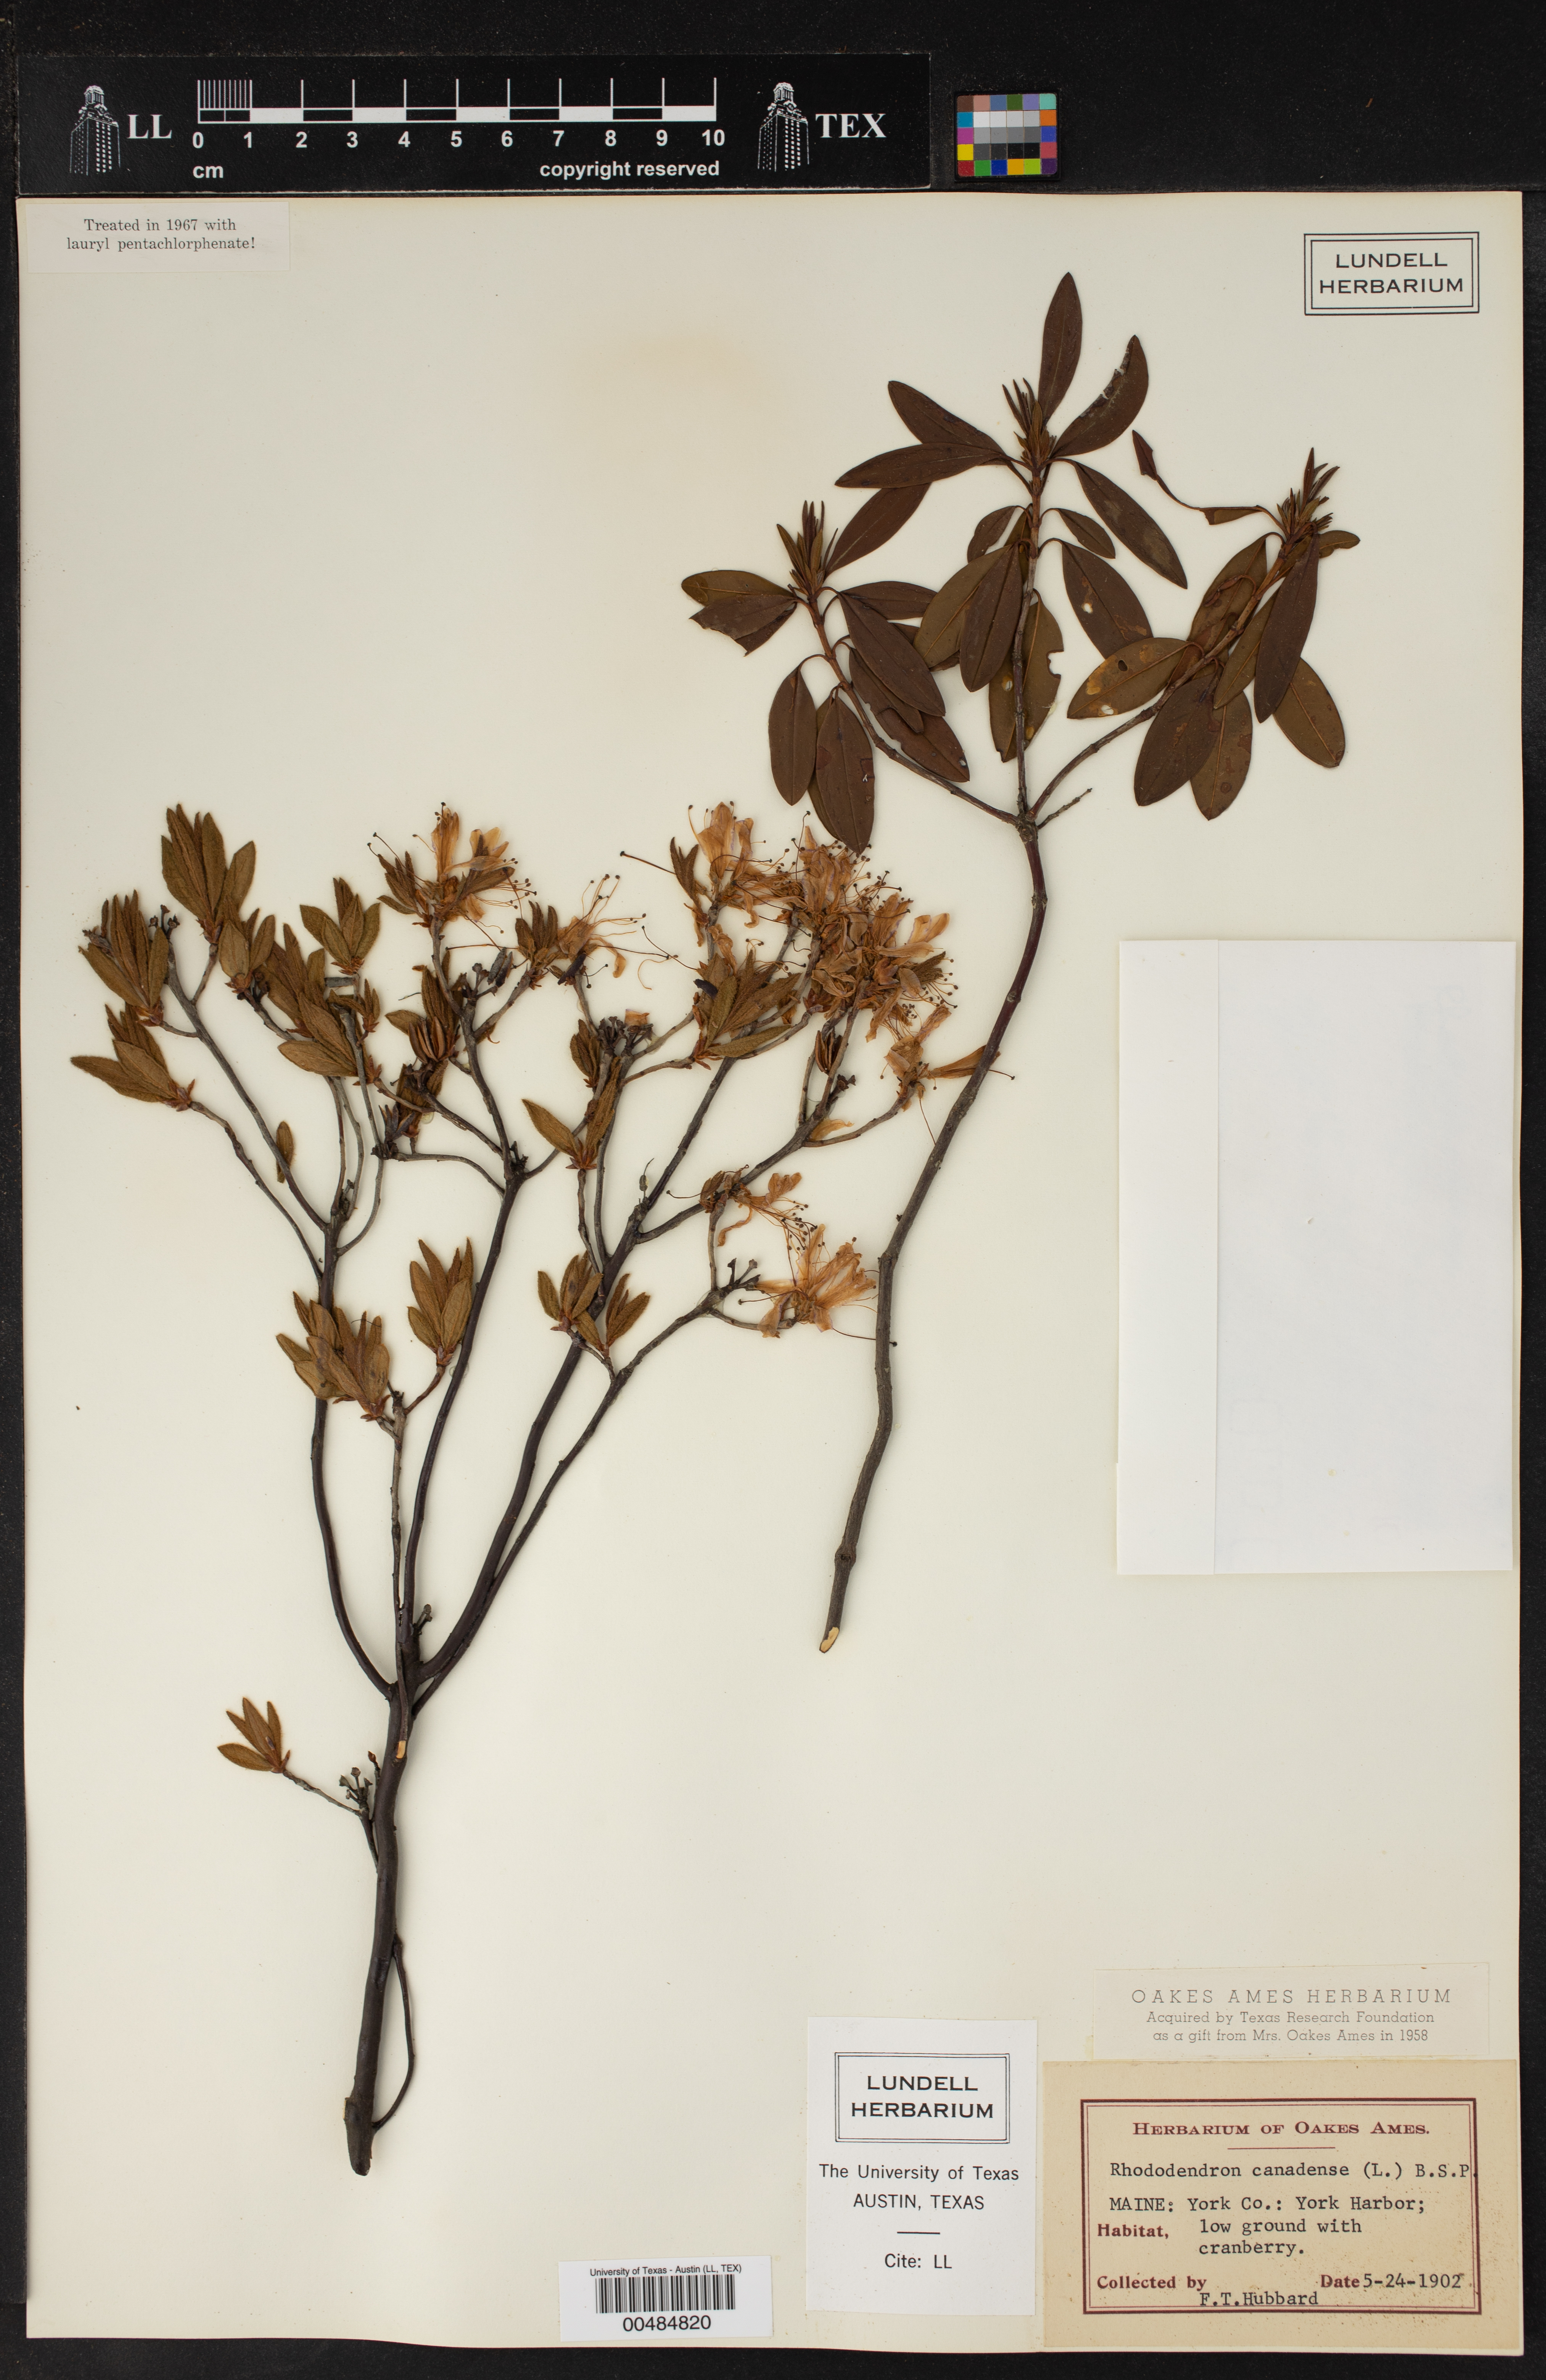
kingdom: Plantae
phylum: Tracheophyta
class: Magnoliopsida
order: Ericales
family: Ericaceae
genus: Rhododendron
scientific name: Rhododendron canadense
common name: Rhodora
